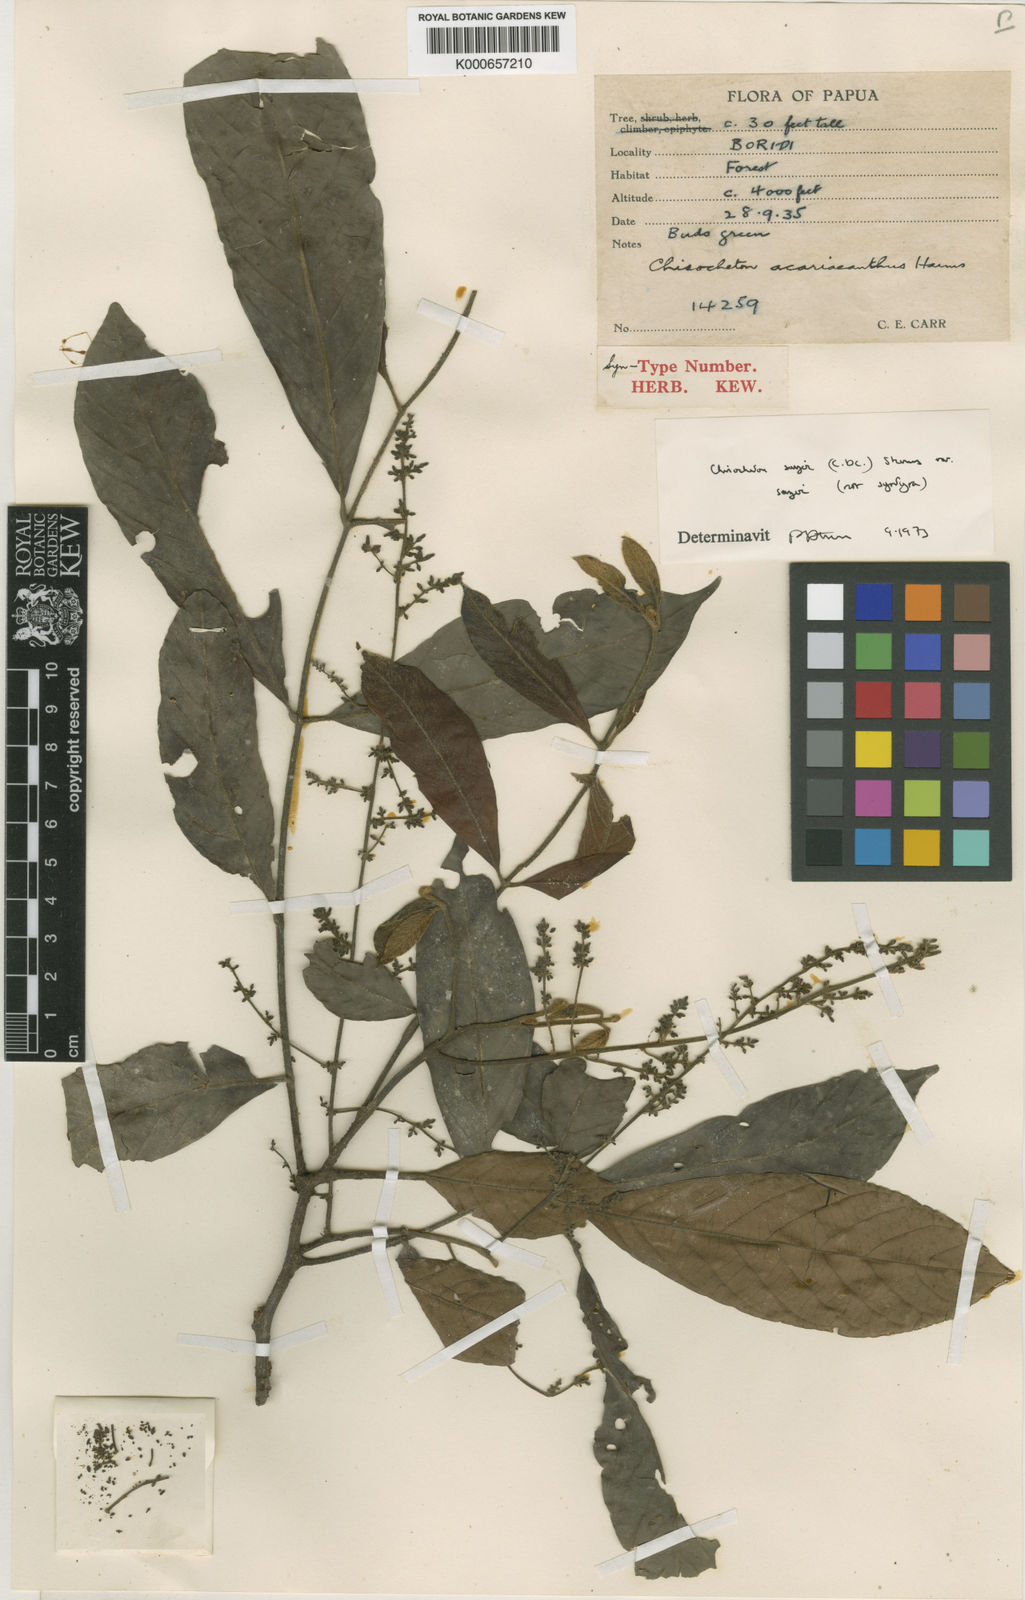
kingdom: Plantae
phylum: Tracheophyta
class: Magnoliopsida
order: Sapindales
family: Meliaceae
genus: Chisocheton
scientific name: Chisocheton sayeri
